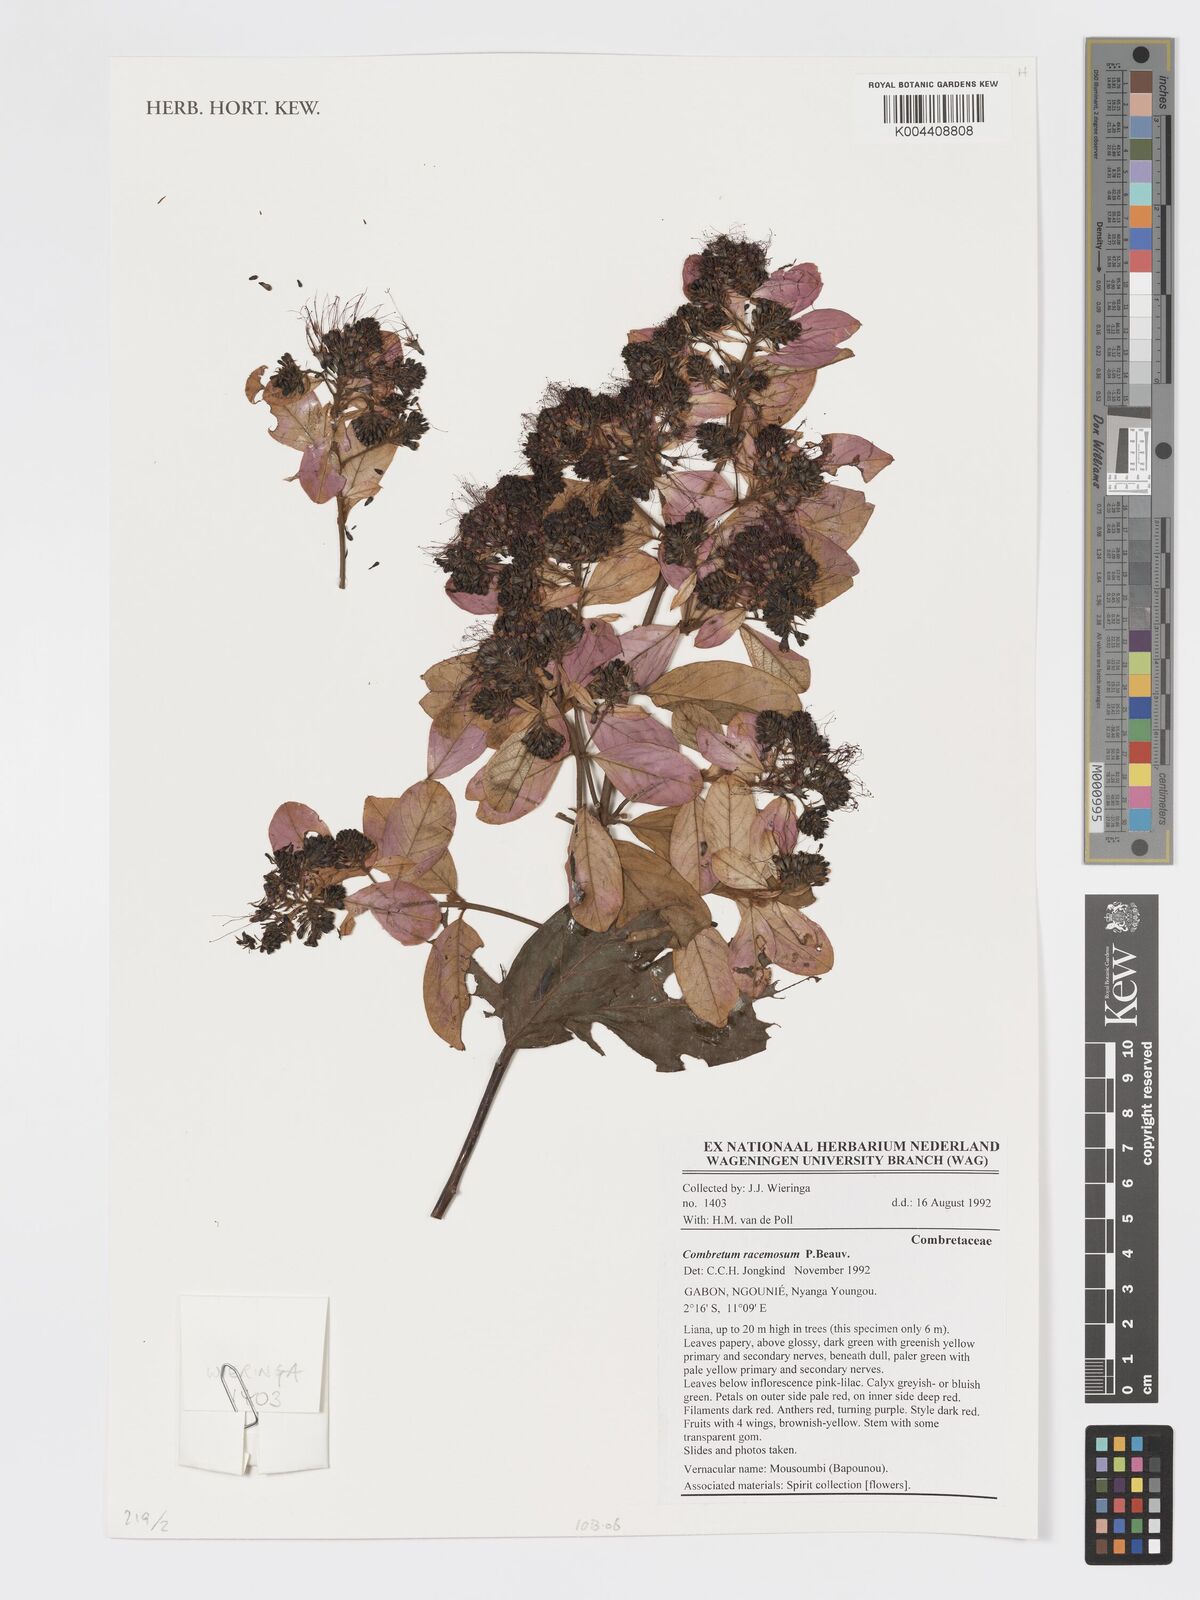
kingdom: Plantae
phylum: Tracheophyta
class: Magnoliopsida
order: Myrtales
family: Combretaceae
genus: Combretum
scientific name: Combretum racemosum
